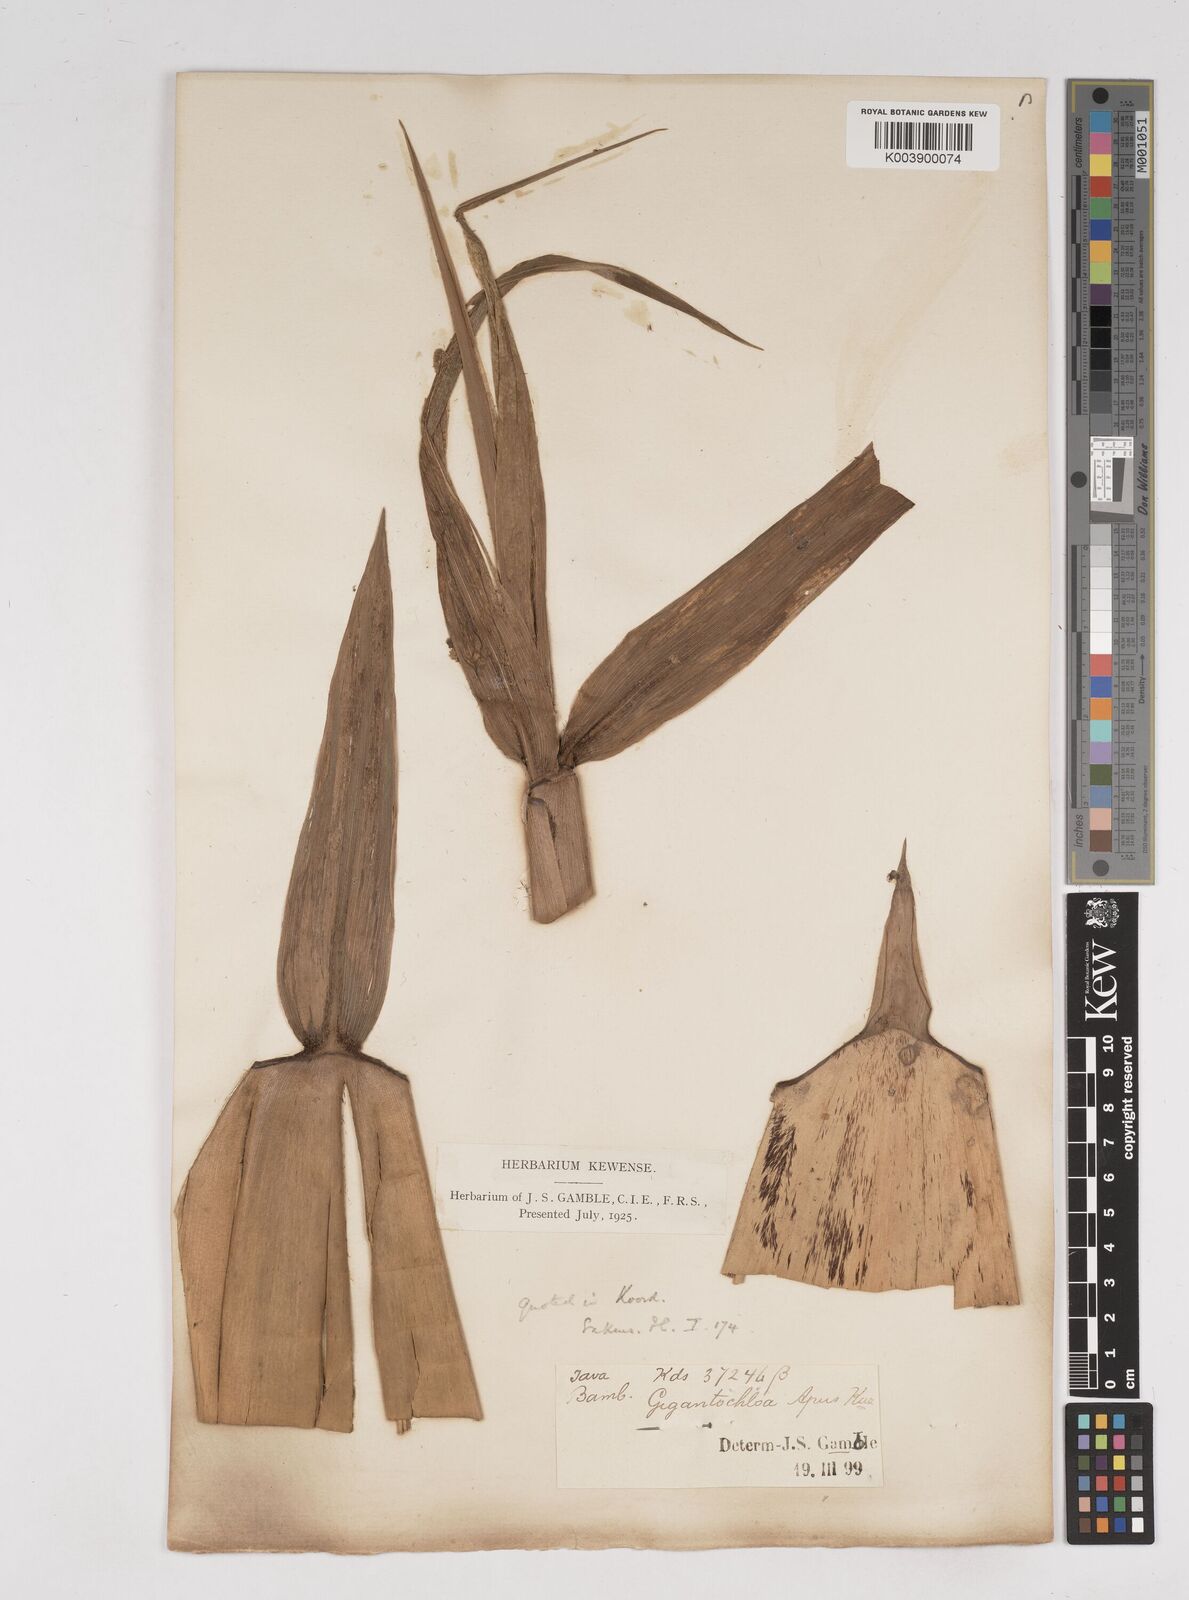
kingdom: Plantae
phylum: Tracheophyta
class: Liliopsida
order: Poales
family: Poaceae
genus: Gigantochloa
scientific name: Gigantochloa apus
